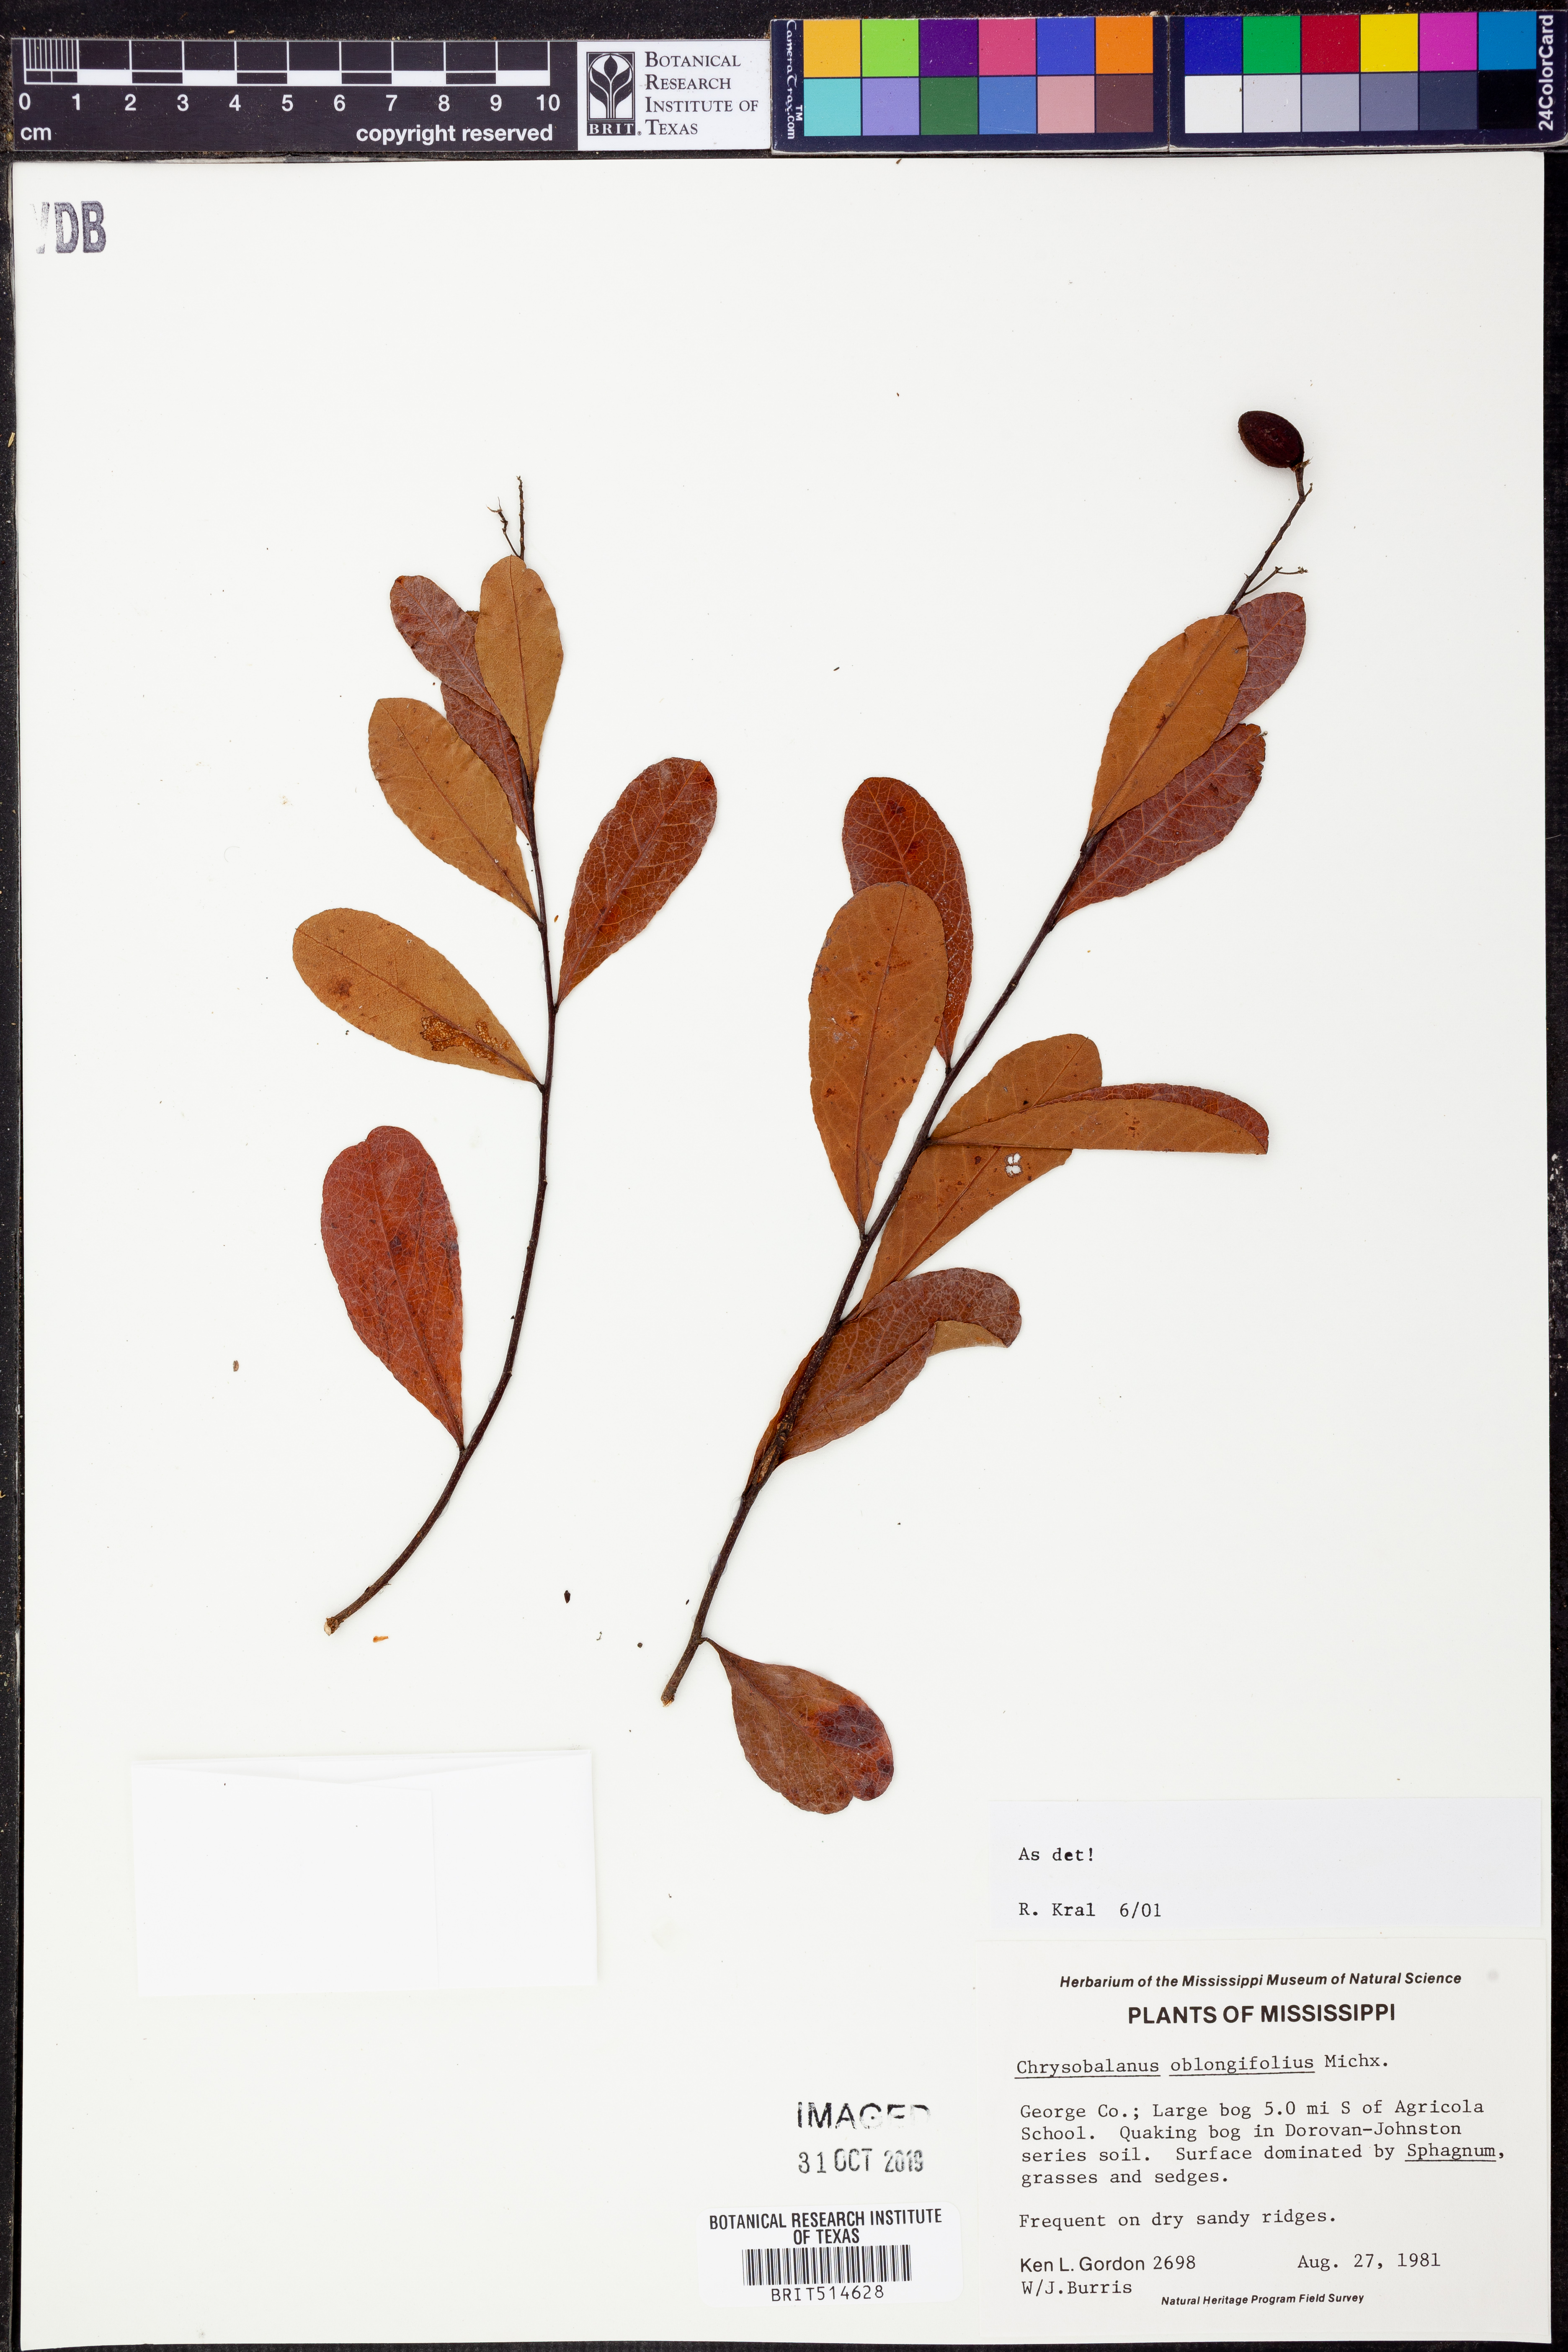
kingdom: Plantae
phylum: Tracheophyta
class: Magnoliopsida
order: Malpighiales
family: Chrysobalanaceae
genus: Geobalanus
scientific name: Geobalanus oblongifolius
